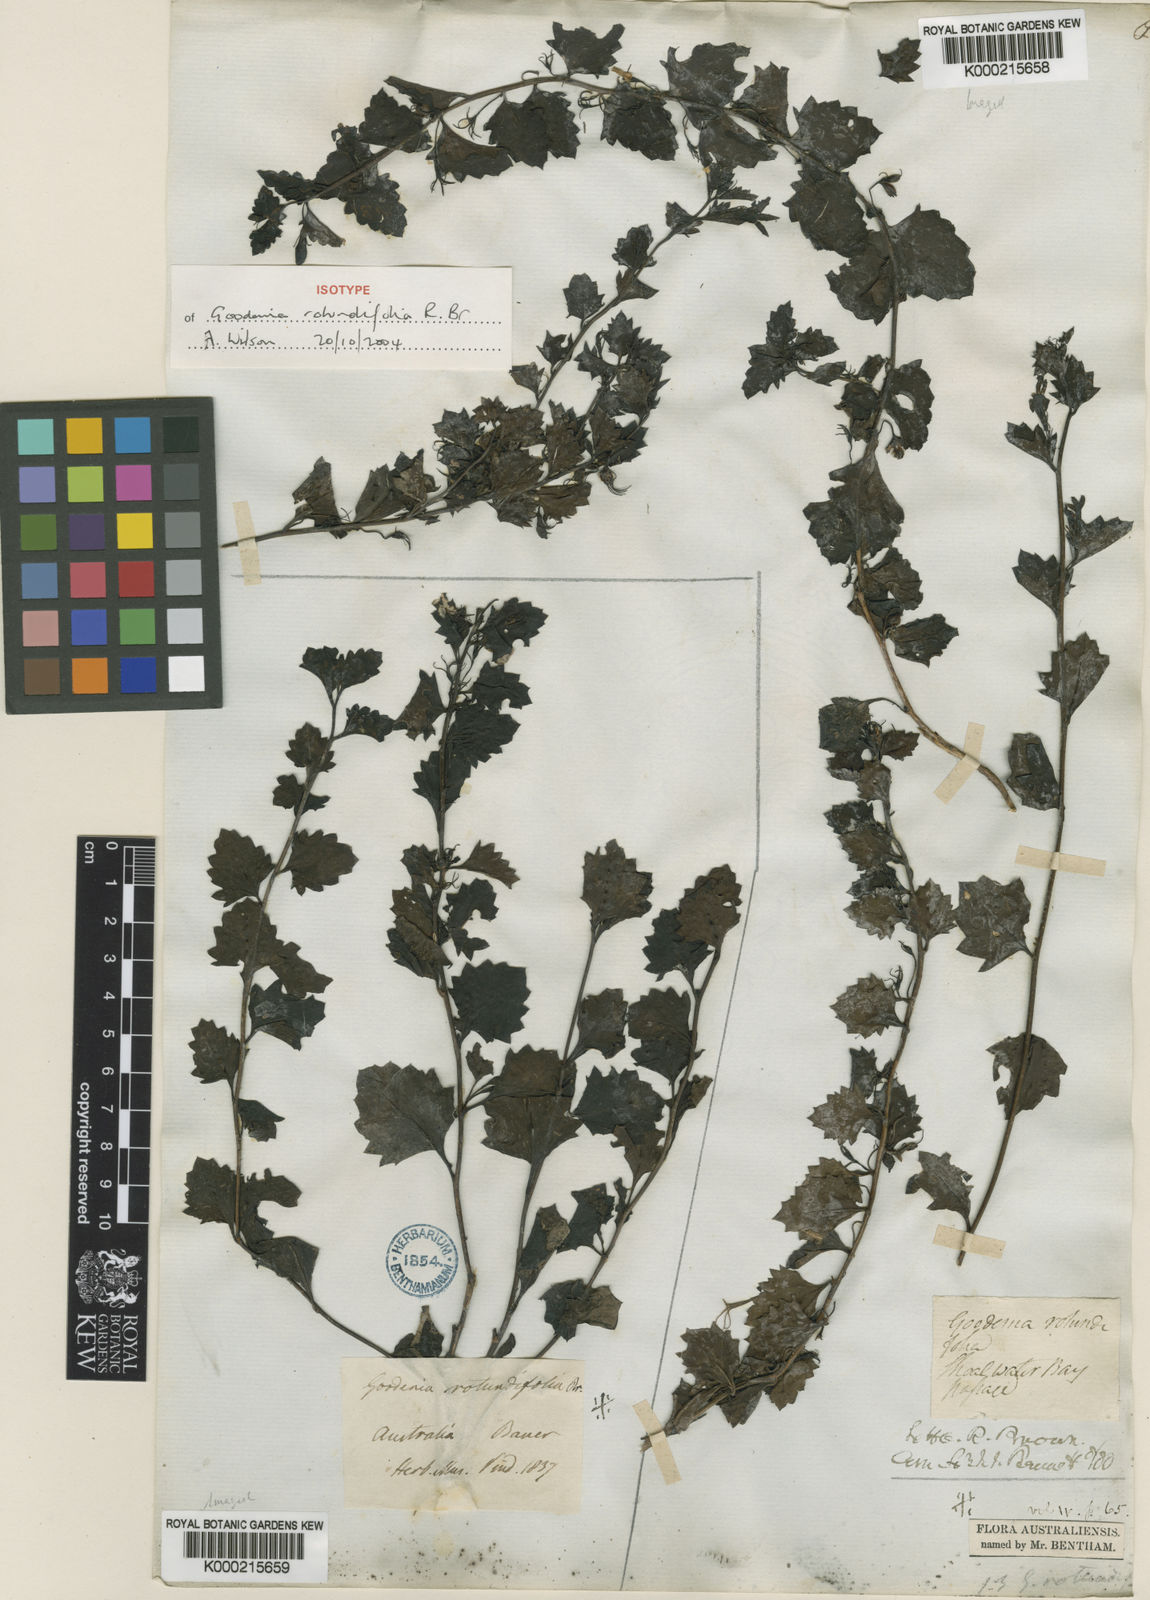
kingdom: Plantae
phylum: Tracheophyta
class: Magnoliopsida
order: Asterales
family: Goodeniaceae
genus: Goodenia
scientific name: Goodenia rotundifolia
